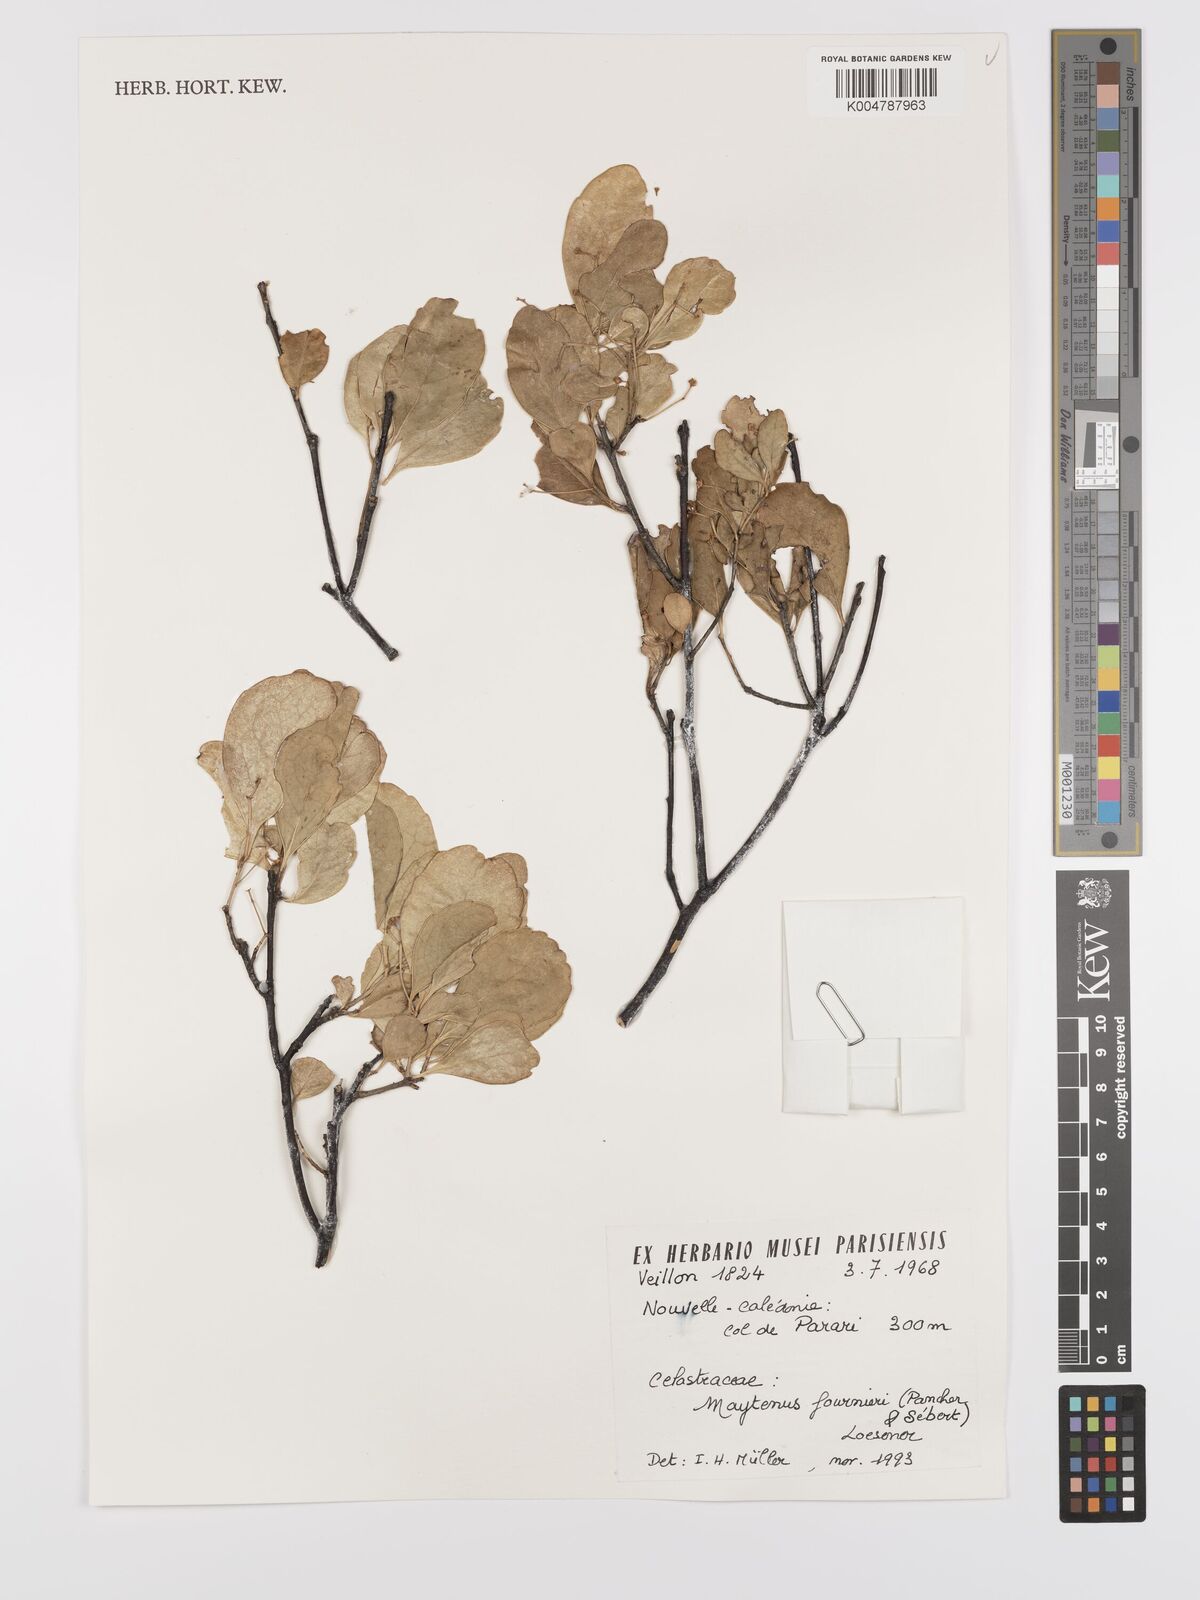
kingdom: Plantae
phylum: Tracheophyta
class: Magnoliopsida
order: Celastrales
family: Celastraceae
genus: Denhamia
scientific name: Denhamia
